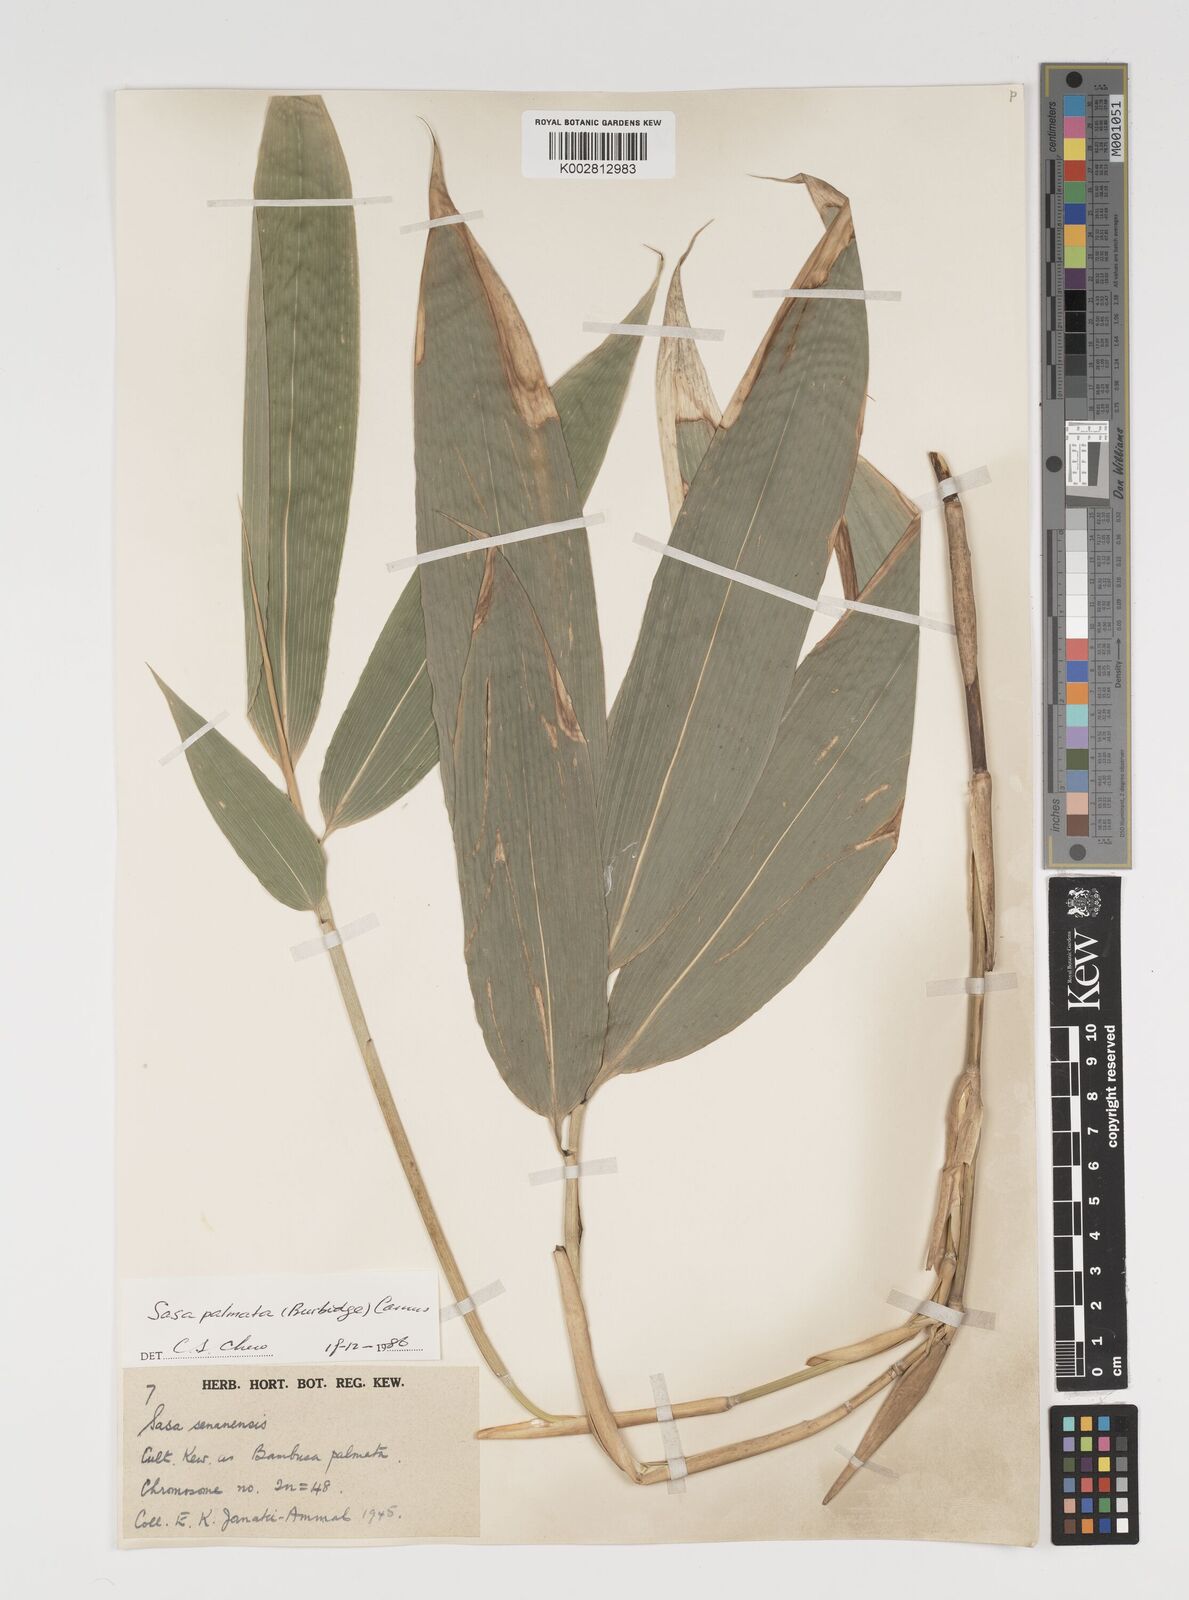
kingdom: Plantae
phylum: Tracheophyta
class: Liliopsida
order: Poales
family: Poaceae
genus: Sasa
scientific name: Sasa palmata
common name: Broad-leaved bamboo
